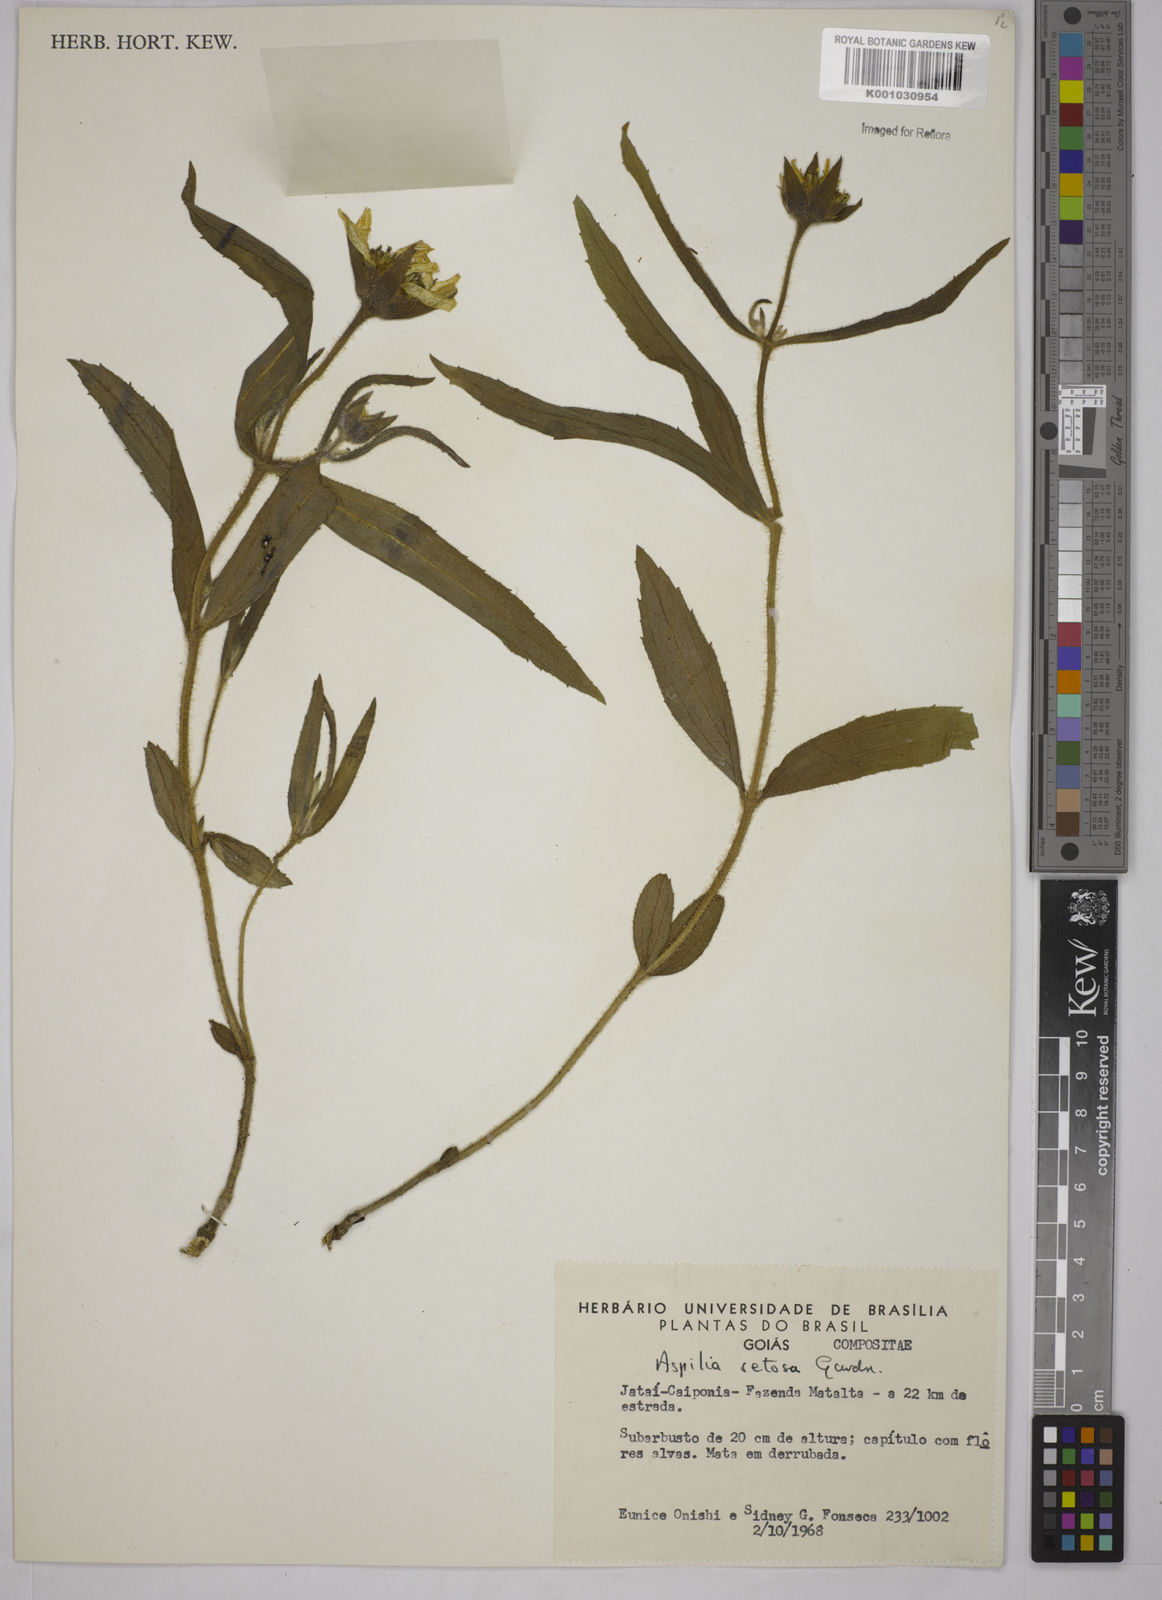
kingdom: Plantae
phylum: Tracheophyta
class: Magnoliopsida
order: Asterales
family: Asteraceae
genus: Aspilia
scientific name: Aspilia
